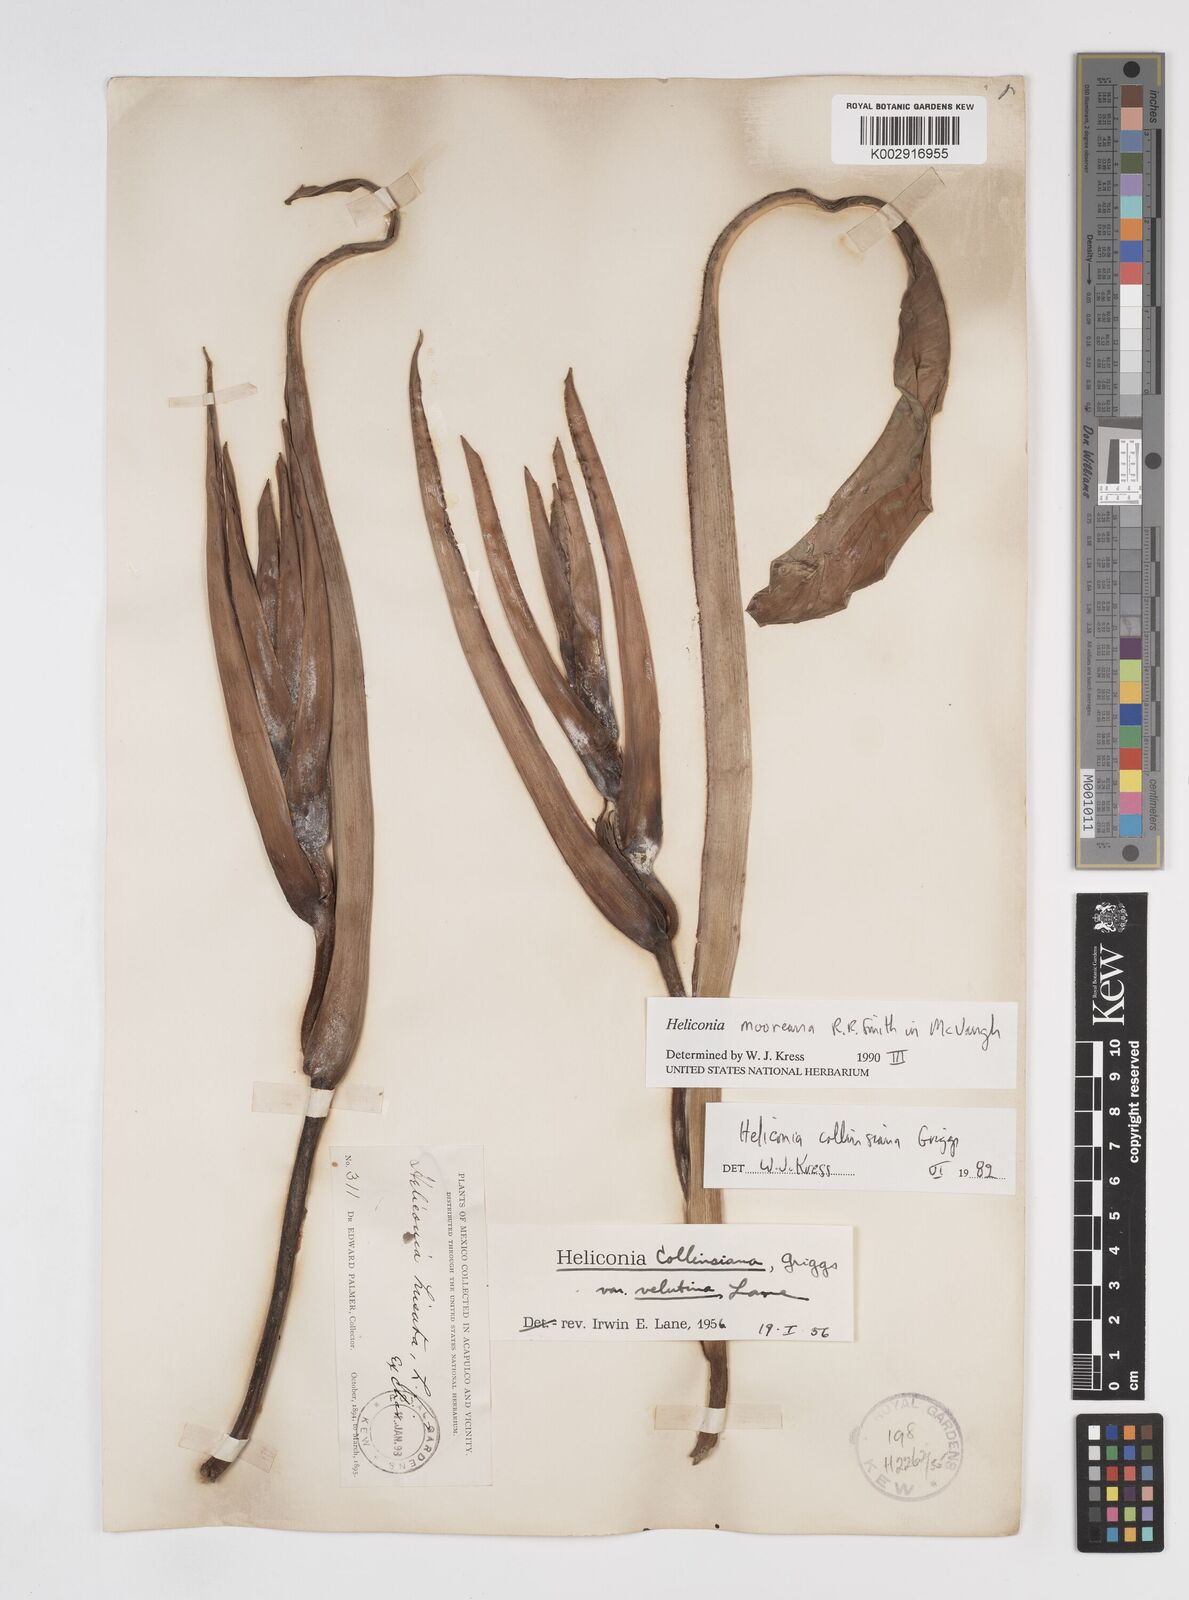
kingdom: Plantae
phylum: Tracheophyta
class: Liliopsida
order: Zingiberales
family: Heliconiaceae
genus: Heliconia
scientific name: Heliconia mooreana
